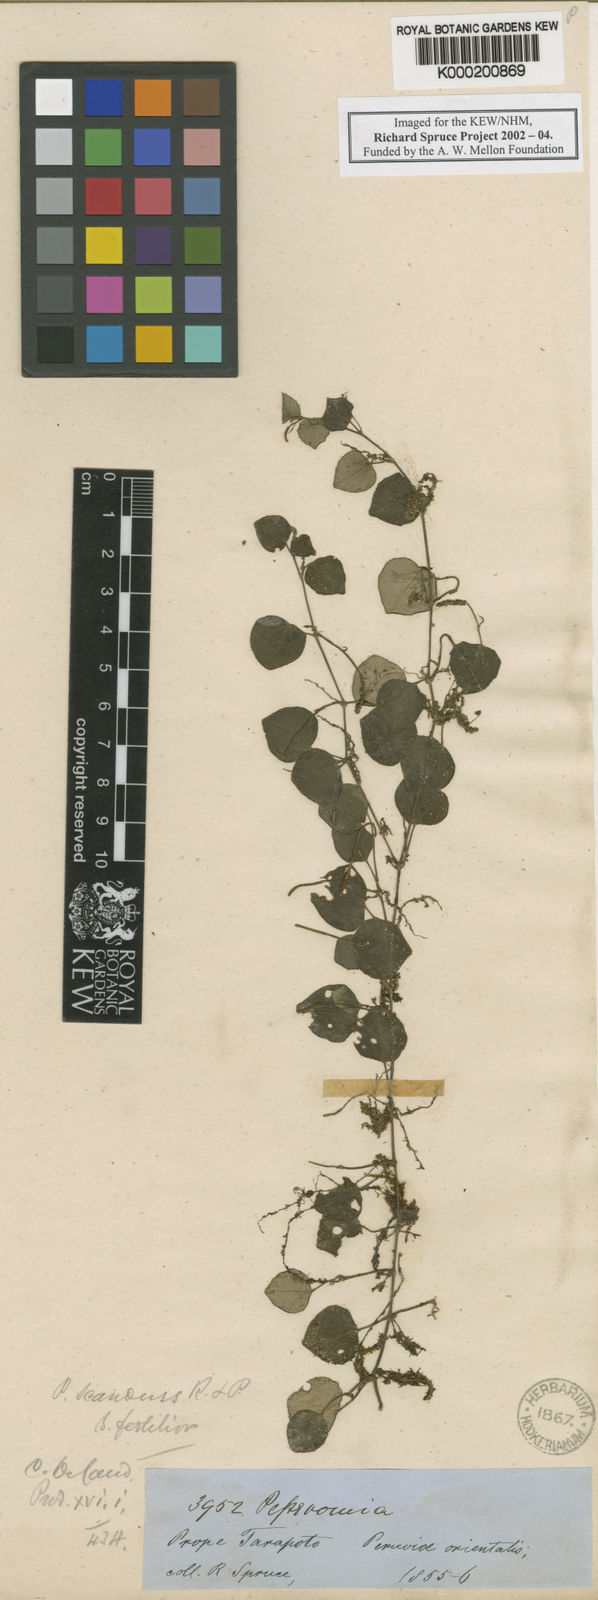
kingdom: Plantae
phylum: Tracheophyta
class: Magnoliopsida
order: Piperales
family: Piperaceae
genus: Peperomia
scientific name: Peperomia serpens
